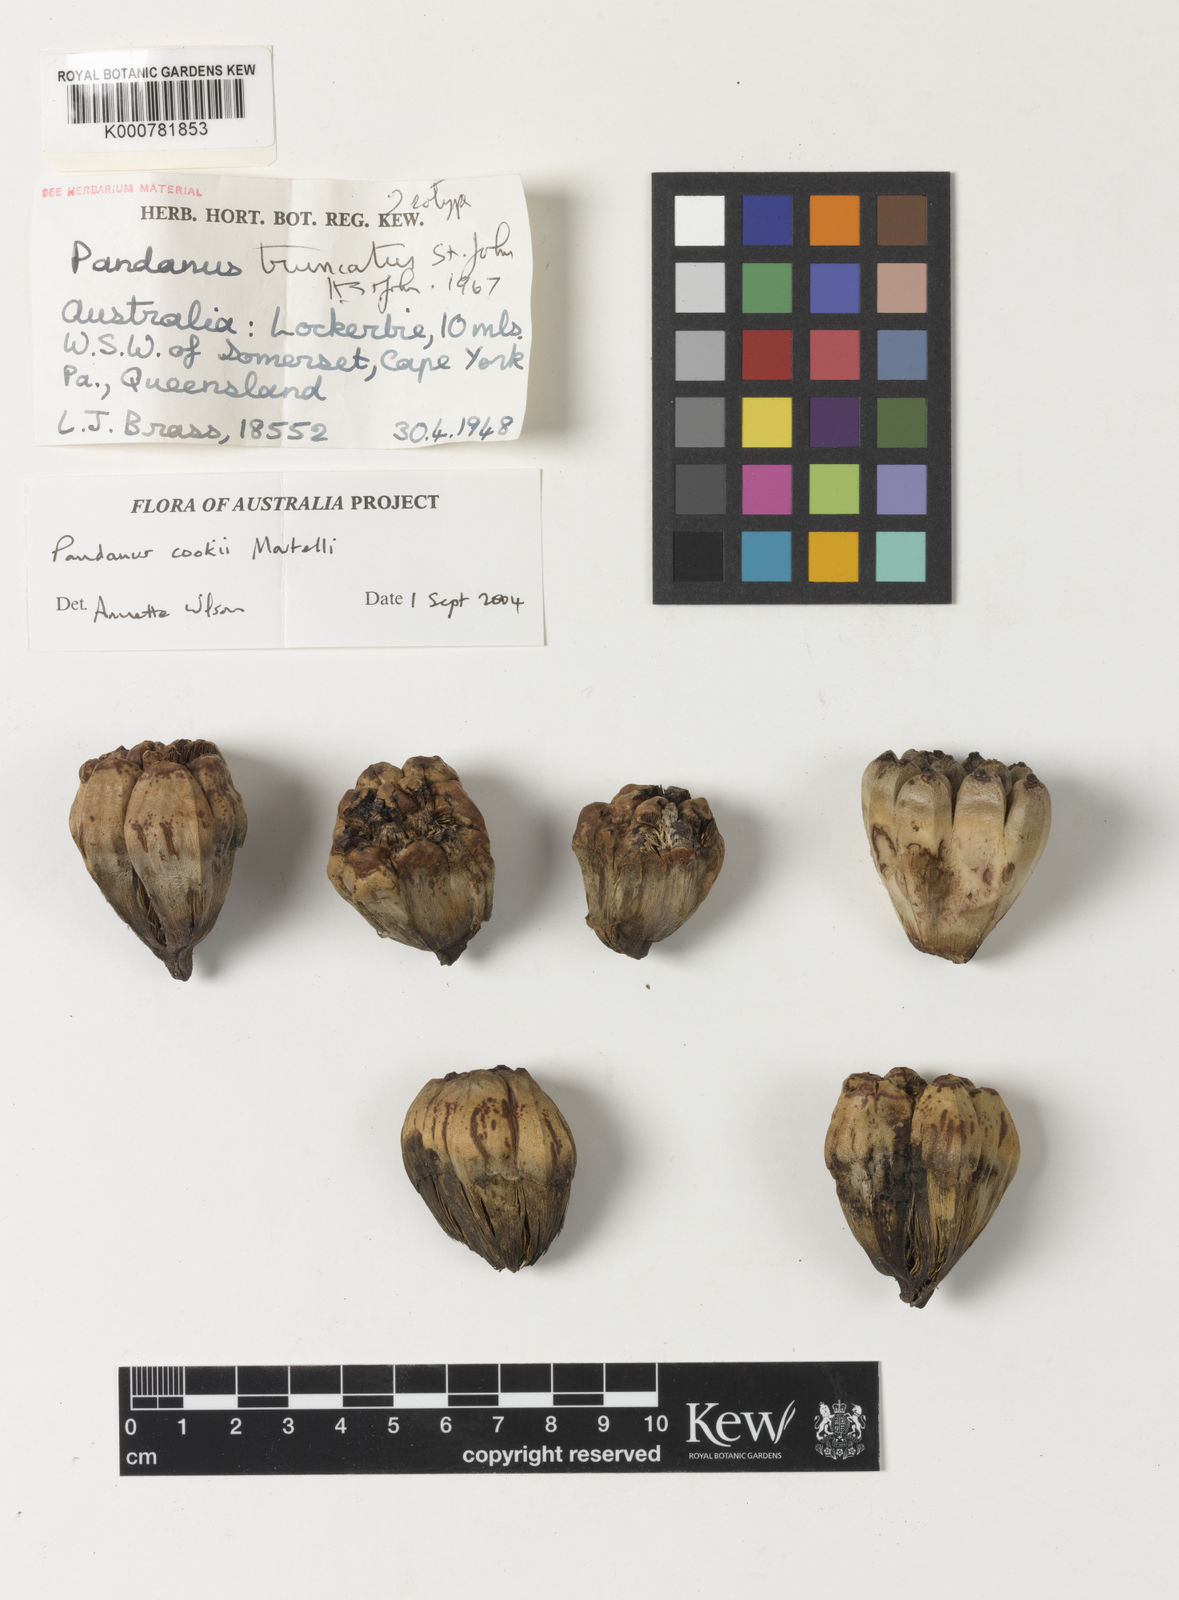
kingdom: Plantae
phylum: Tracheophyta
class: Liliopsida
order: Pandanales
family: Pandanaceae
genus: Pandanus
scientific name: Pandanus cookii
